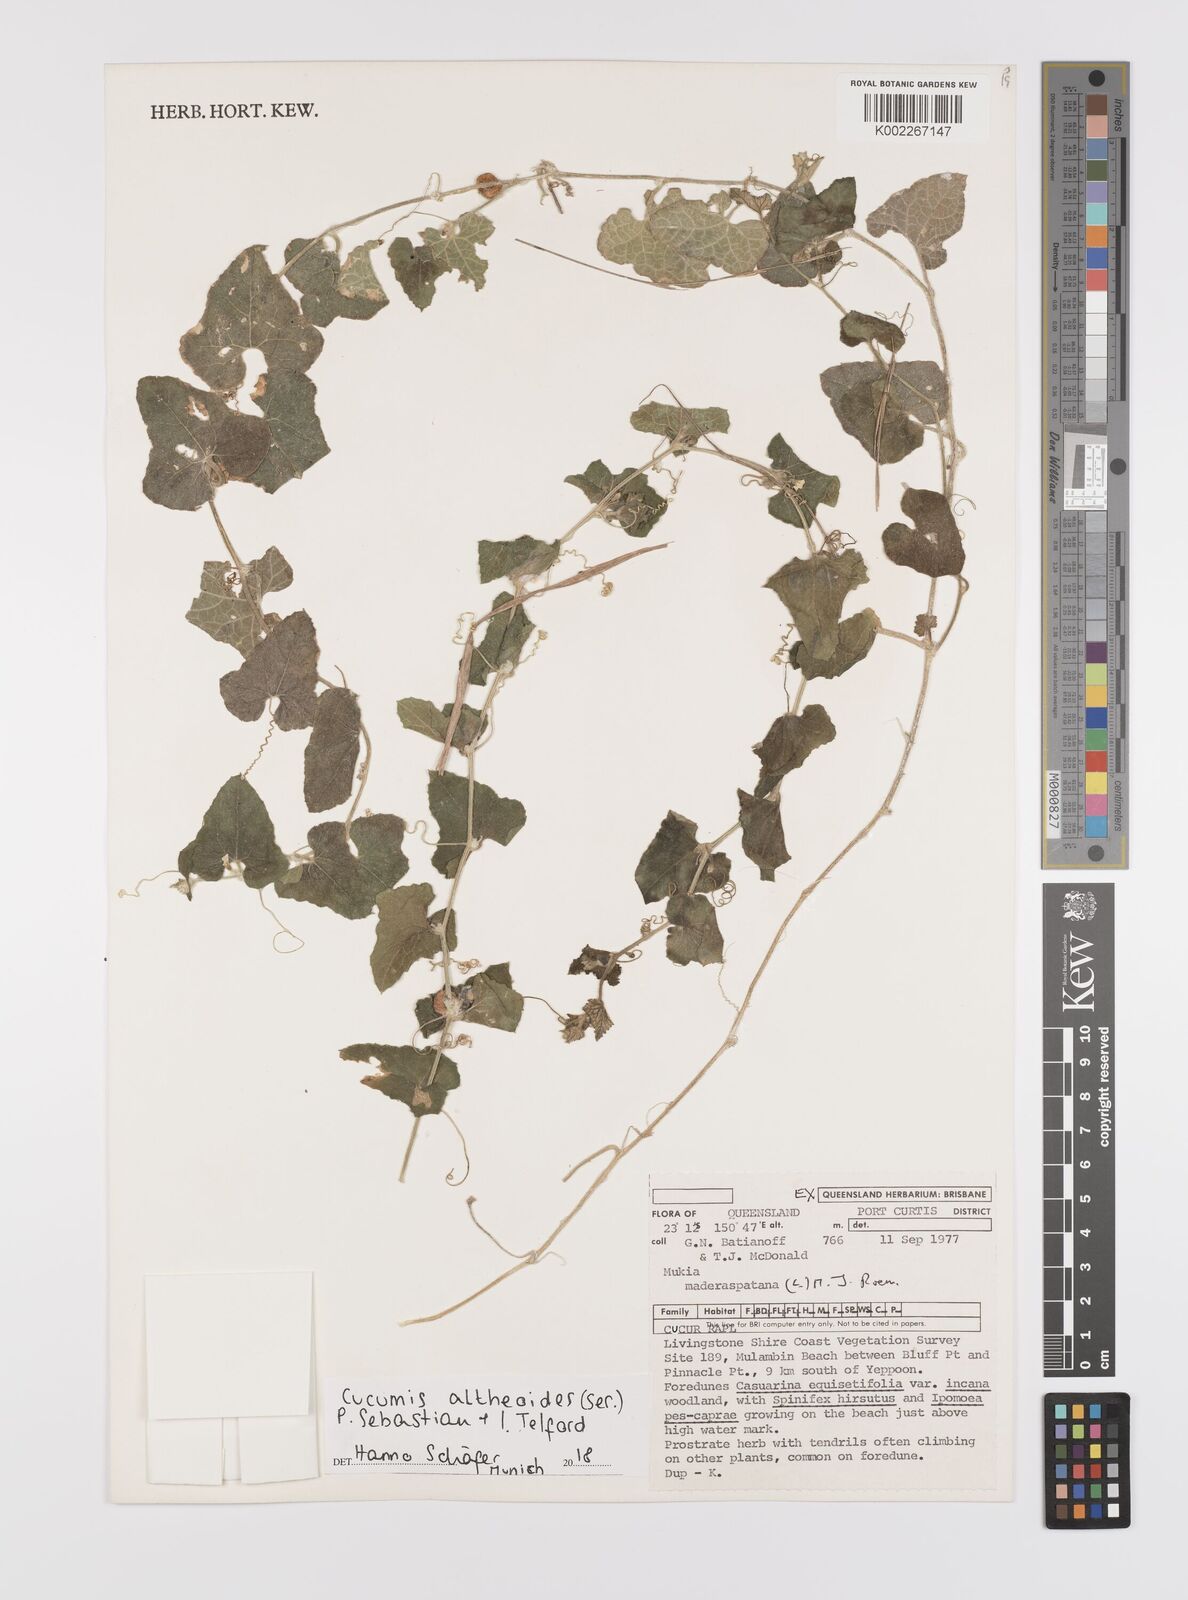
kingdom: Plantae
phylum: Tracheophyta
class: Magnoliopsida
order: Cucurbitales
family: Cucurbitaceae
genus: Cucumis
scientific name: Cucumis althaeoides
